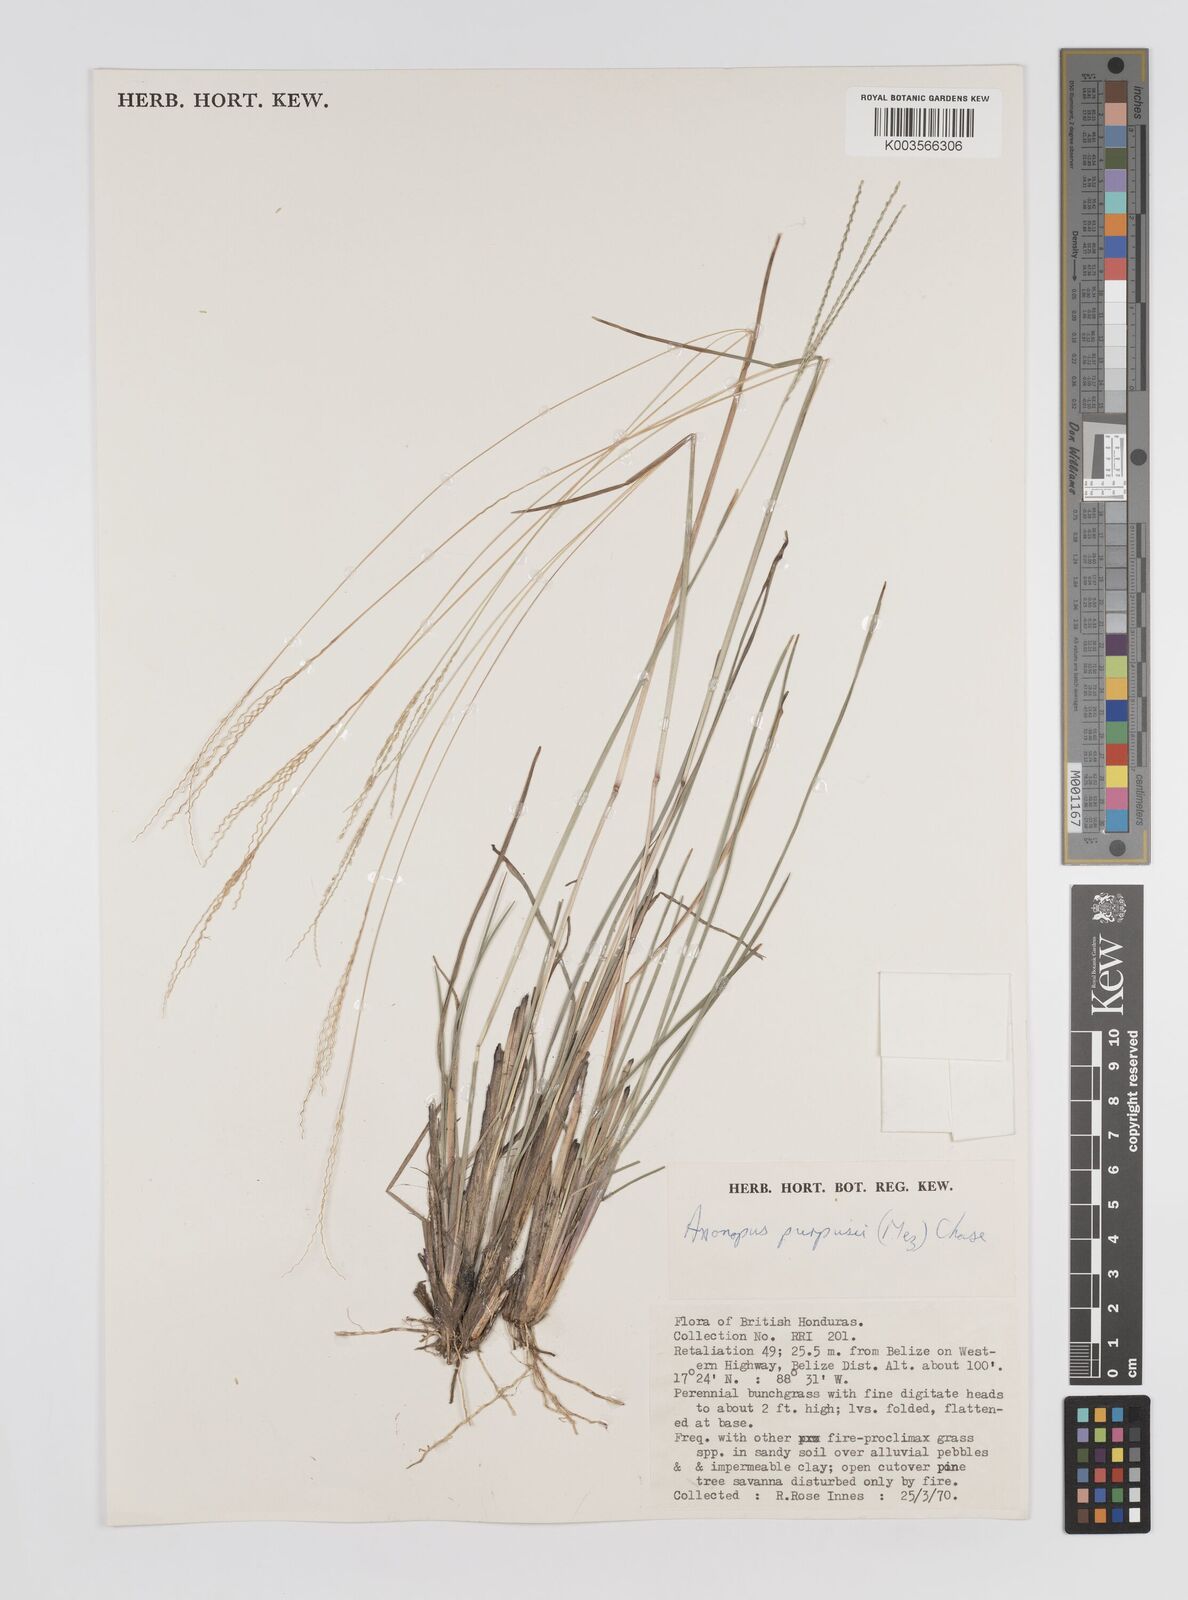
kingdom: Plantae
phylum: Tracheophyta
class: Liliopsida
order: Poales
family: Poaceae
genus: Axonopus
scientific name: Axonopus purpusii
